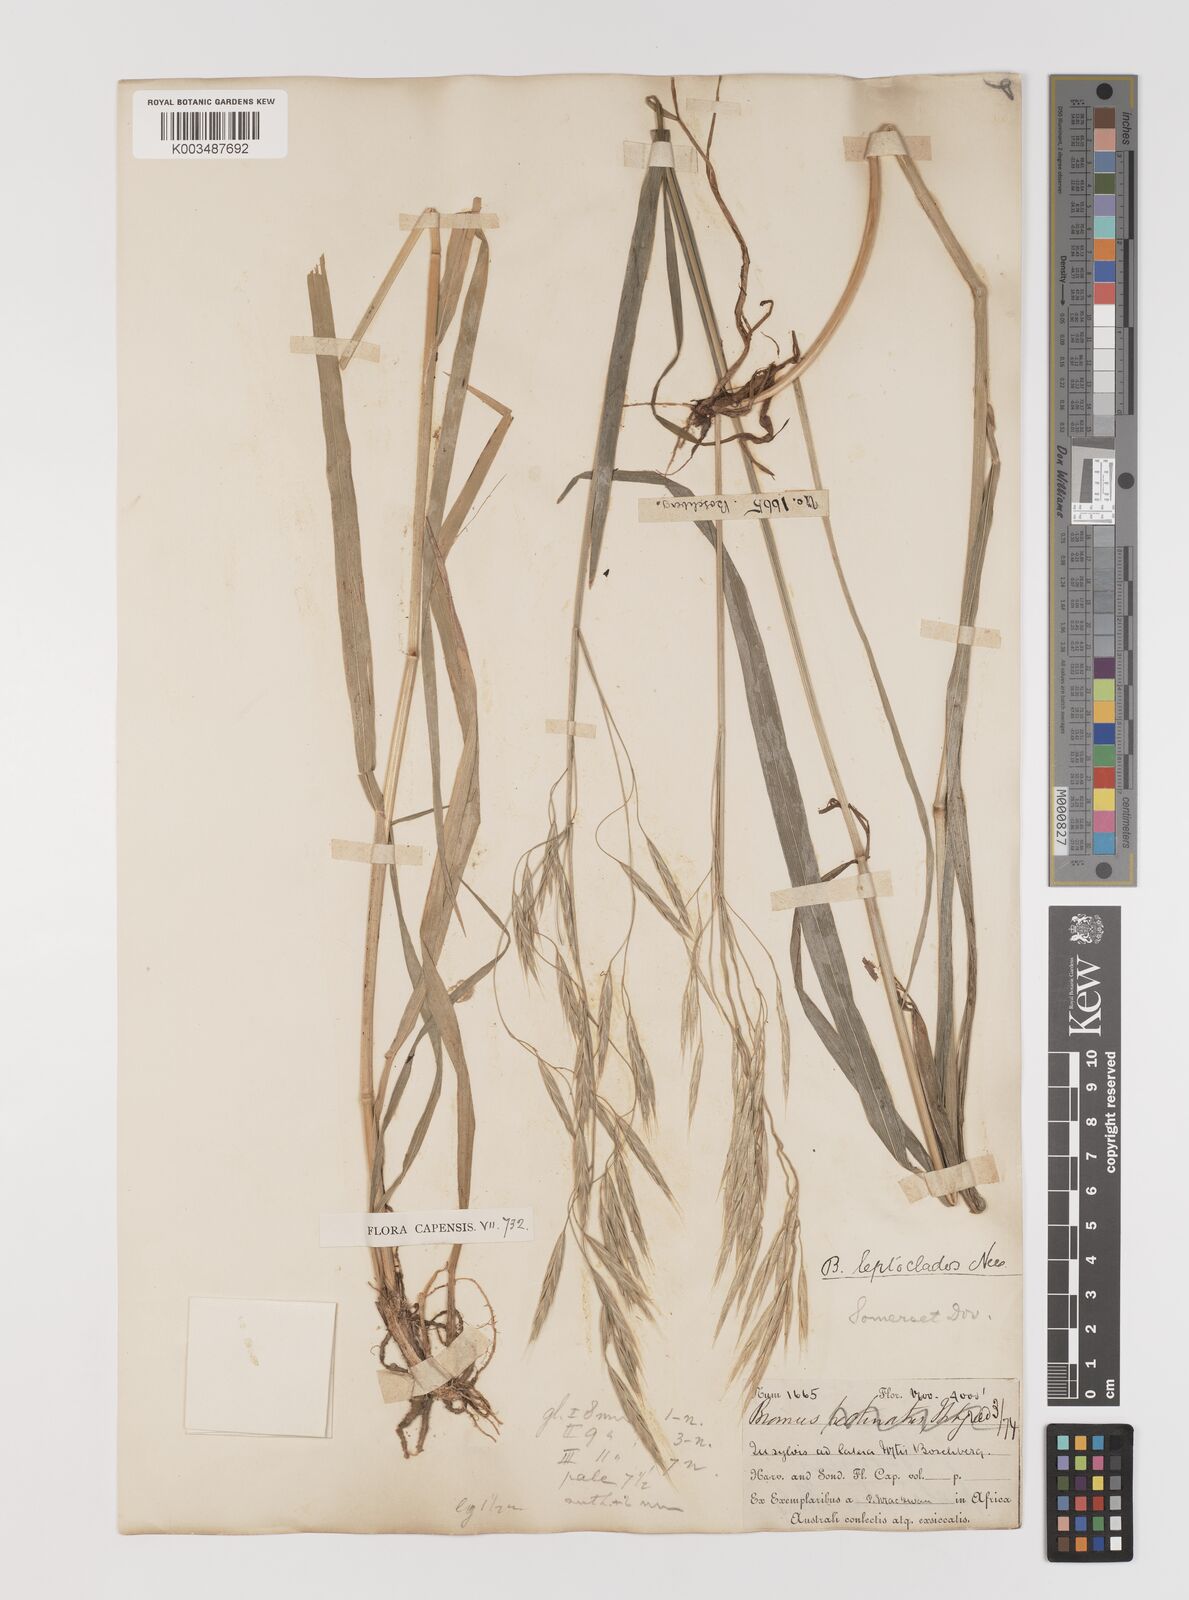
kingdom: Plantae
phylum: Tracheophyta
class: Liliopsida
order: Poales
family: Poaceae
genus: Bromus
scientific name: Bromus leptoclados
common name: Mountain bromegrass
